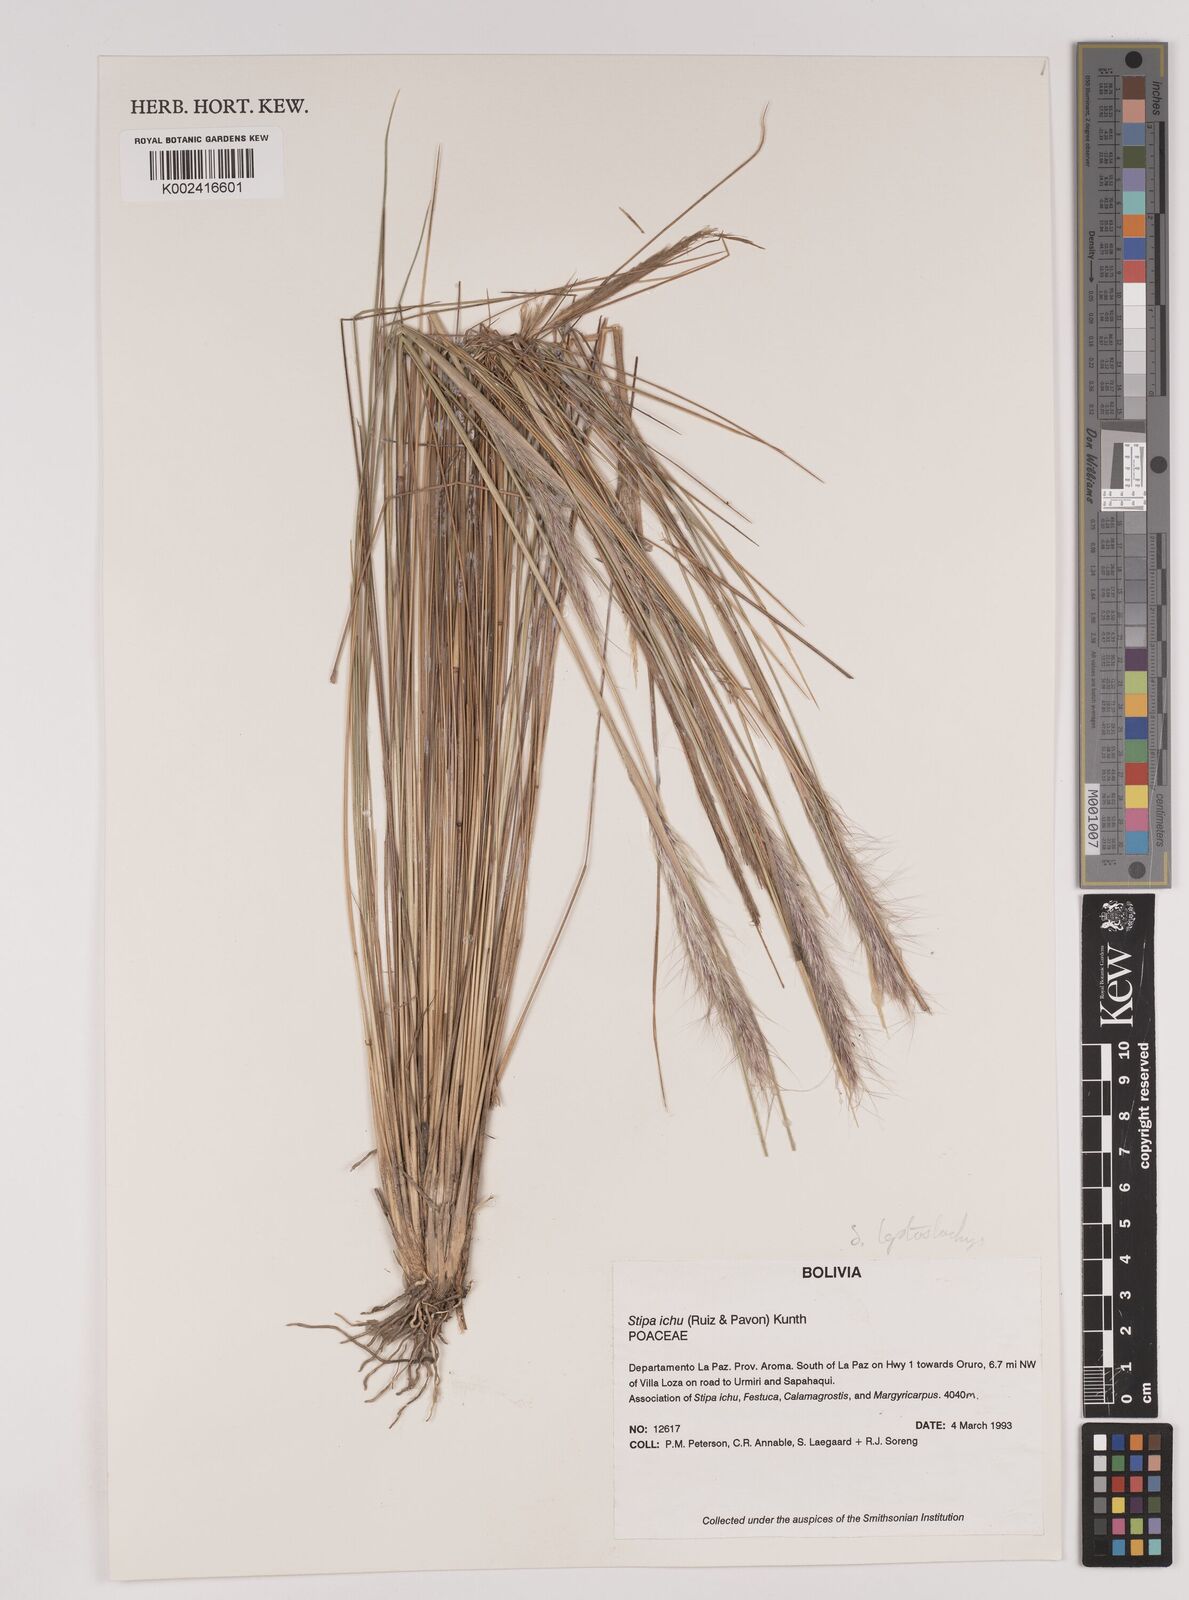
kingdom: Plantae
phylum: Tracheophyta
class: Liliopsida
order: Poales
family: Poaceae
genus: Jarava
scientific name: Jarava leptostachya
